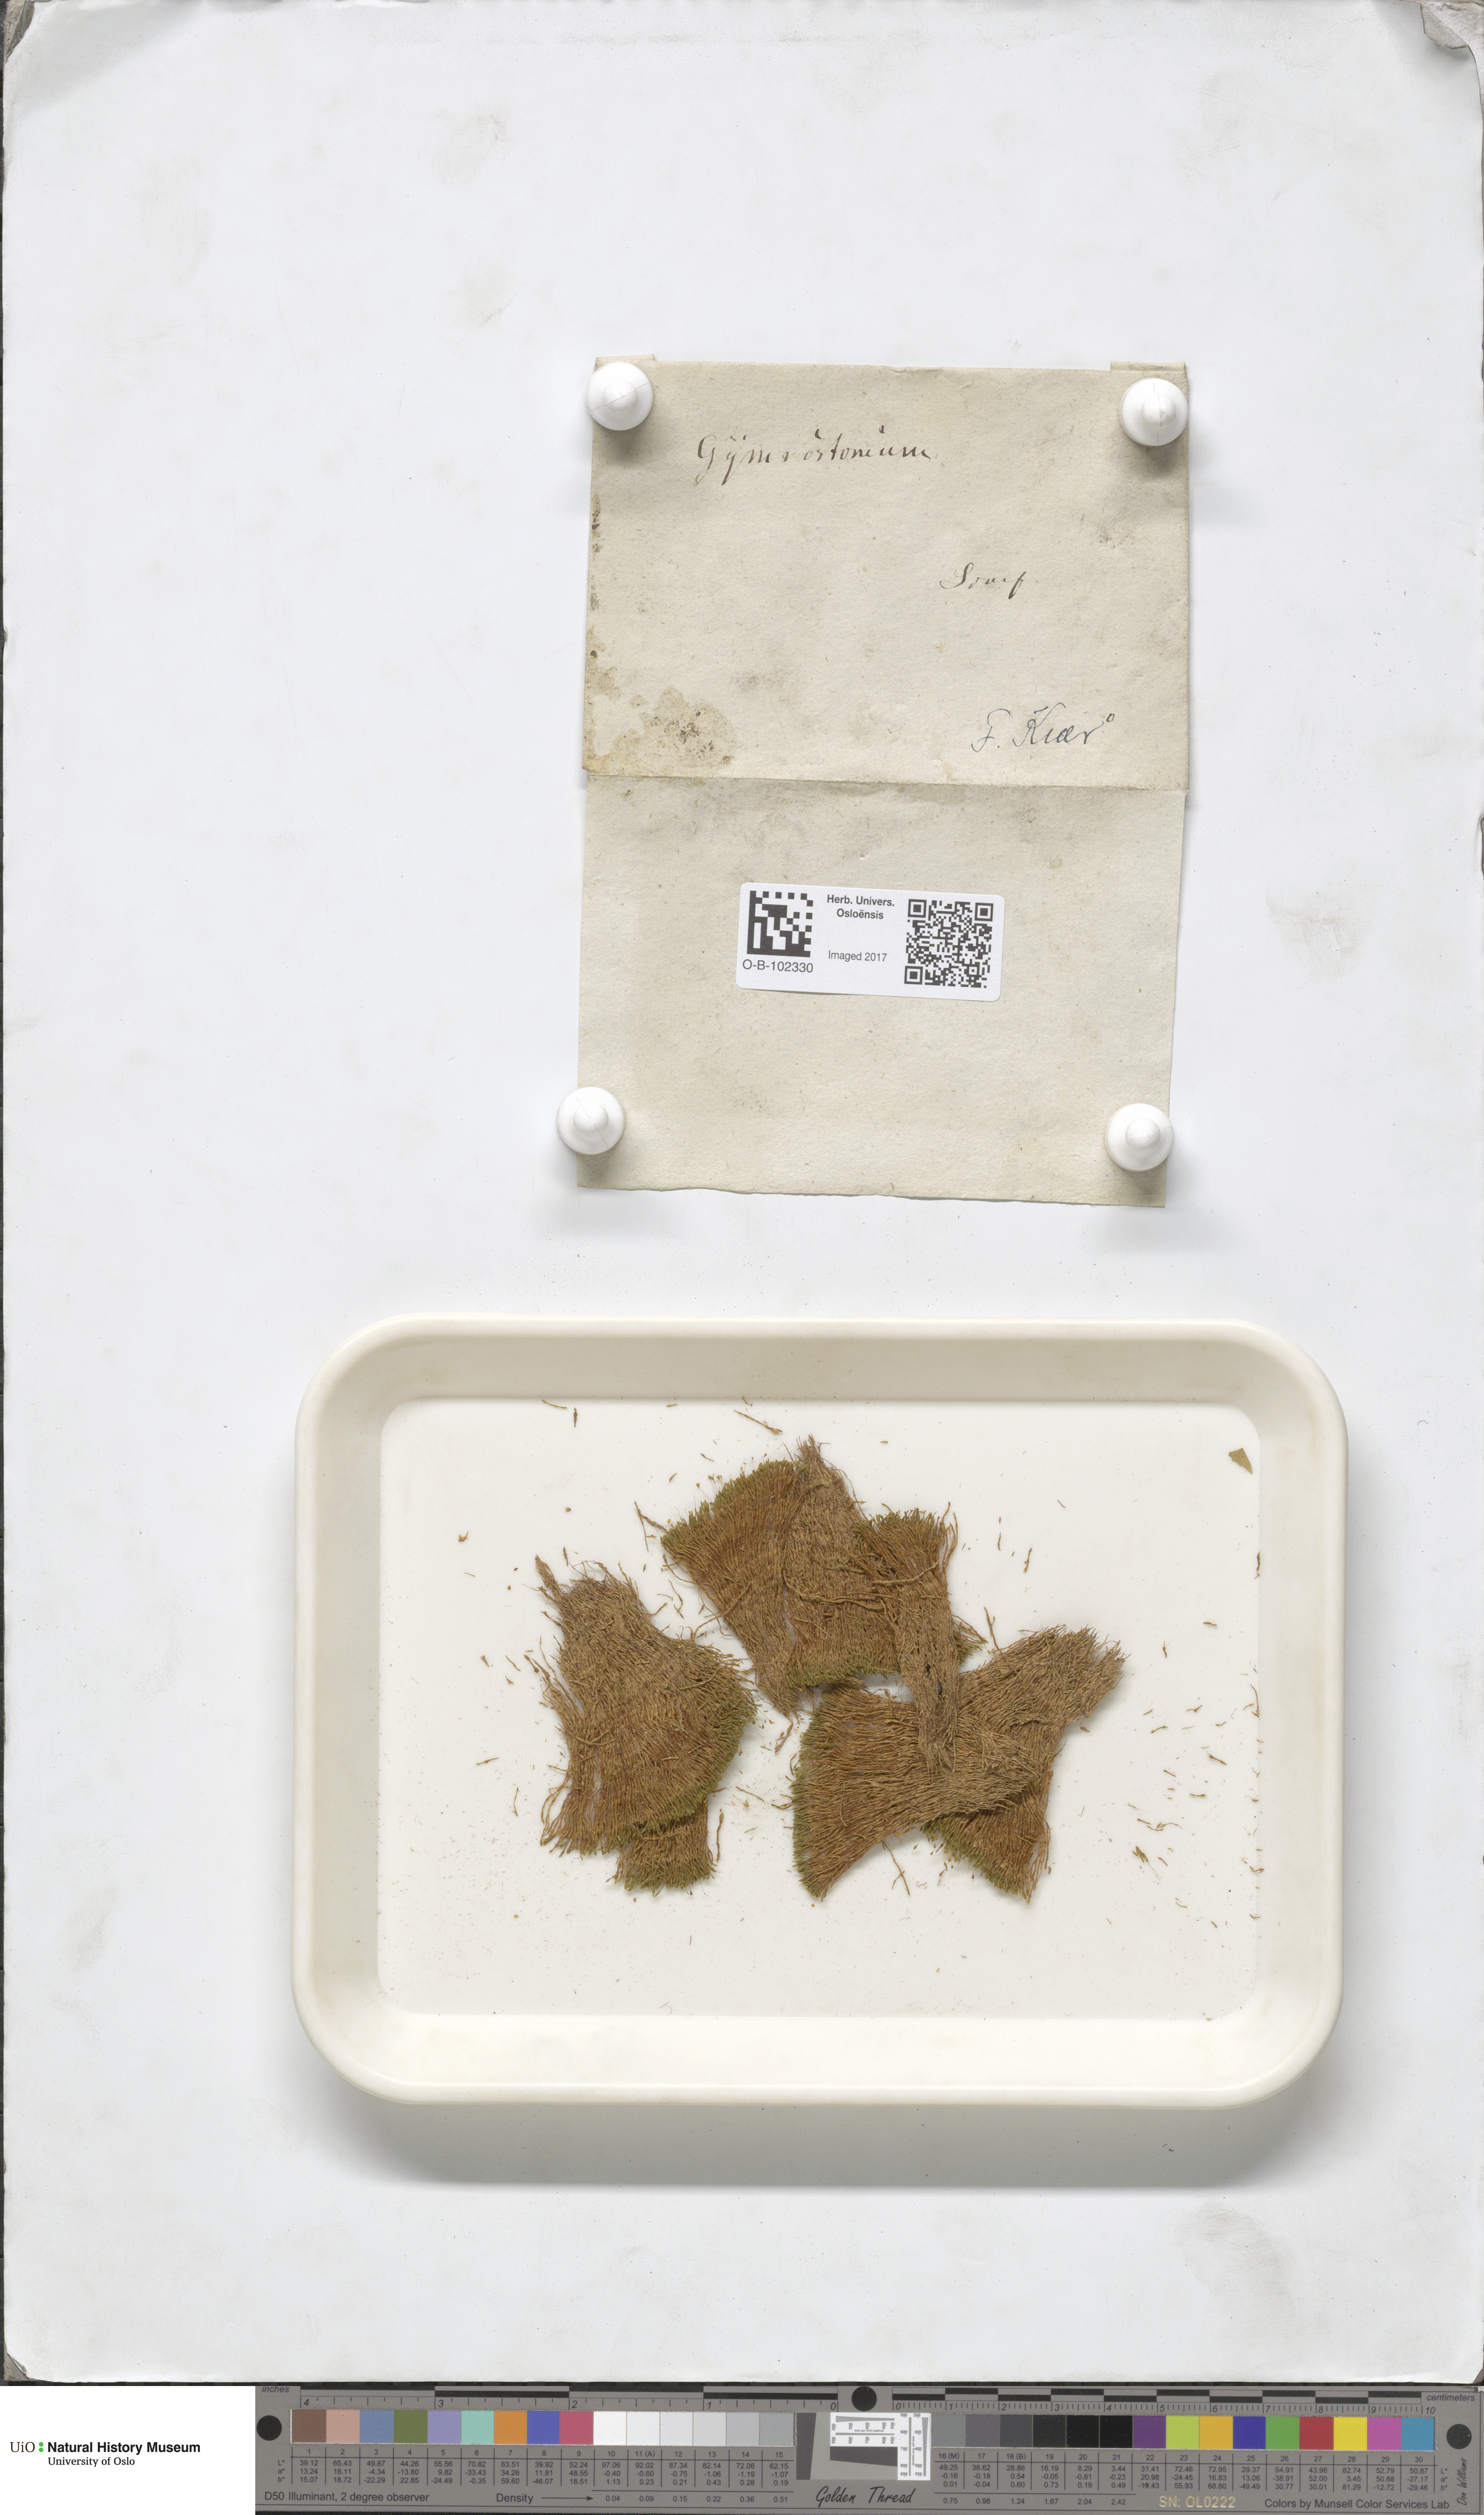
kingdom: Plantae
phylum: Bryophyta
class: Bryopsida
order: Pottiales
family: Pottiaceae
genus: Anoectangium
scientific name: Anoectangium aestivum
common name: Summer-moss
